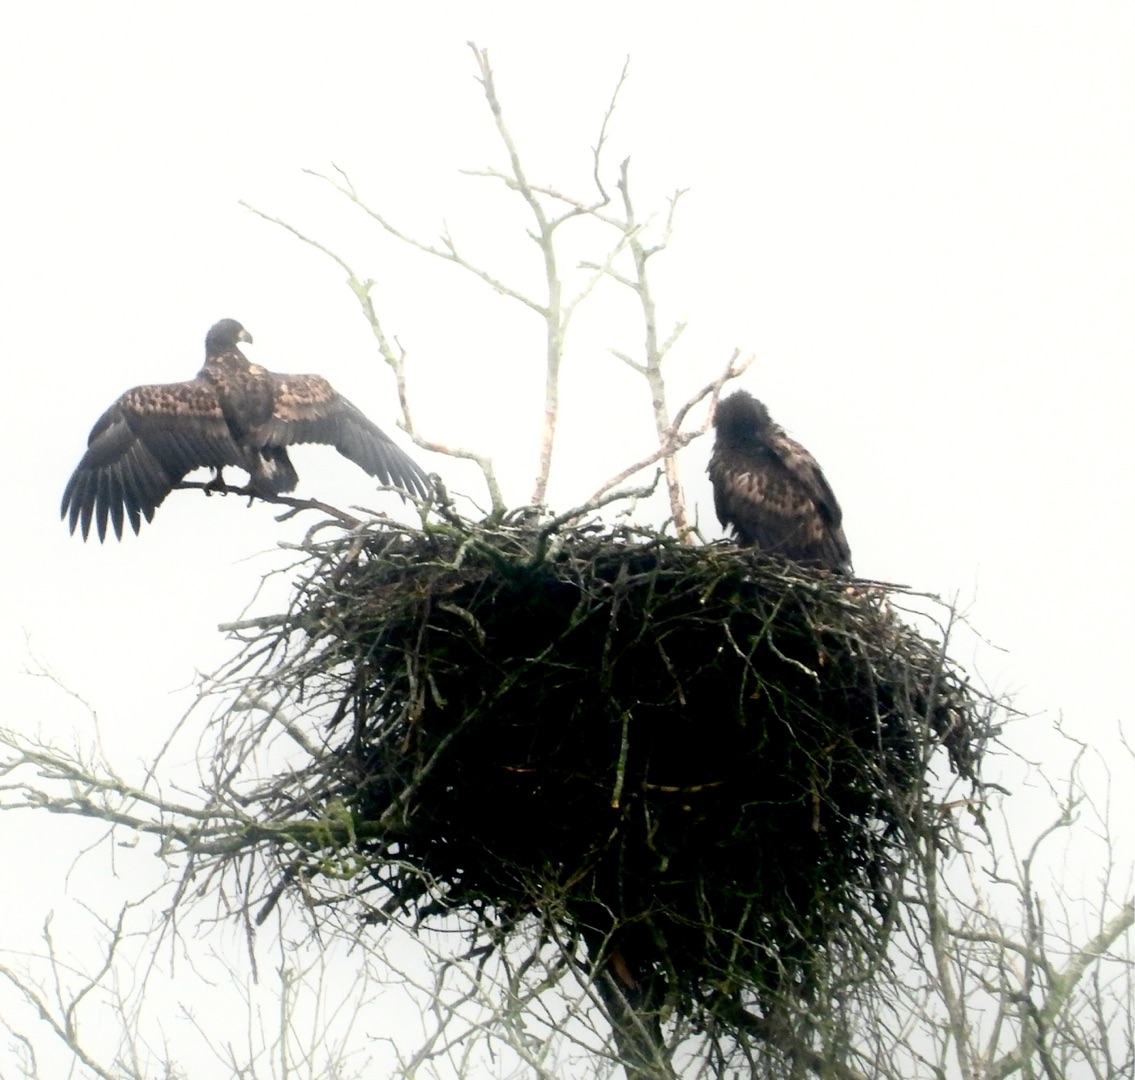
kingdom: Animalia
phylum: Chordata
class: Aves
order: Accipitriformes
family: Accipitridae
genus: Haliaeetus
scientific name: Haliaeetus albicilla
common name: Havørn
